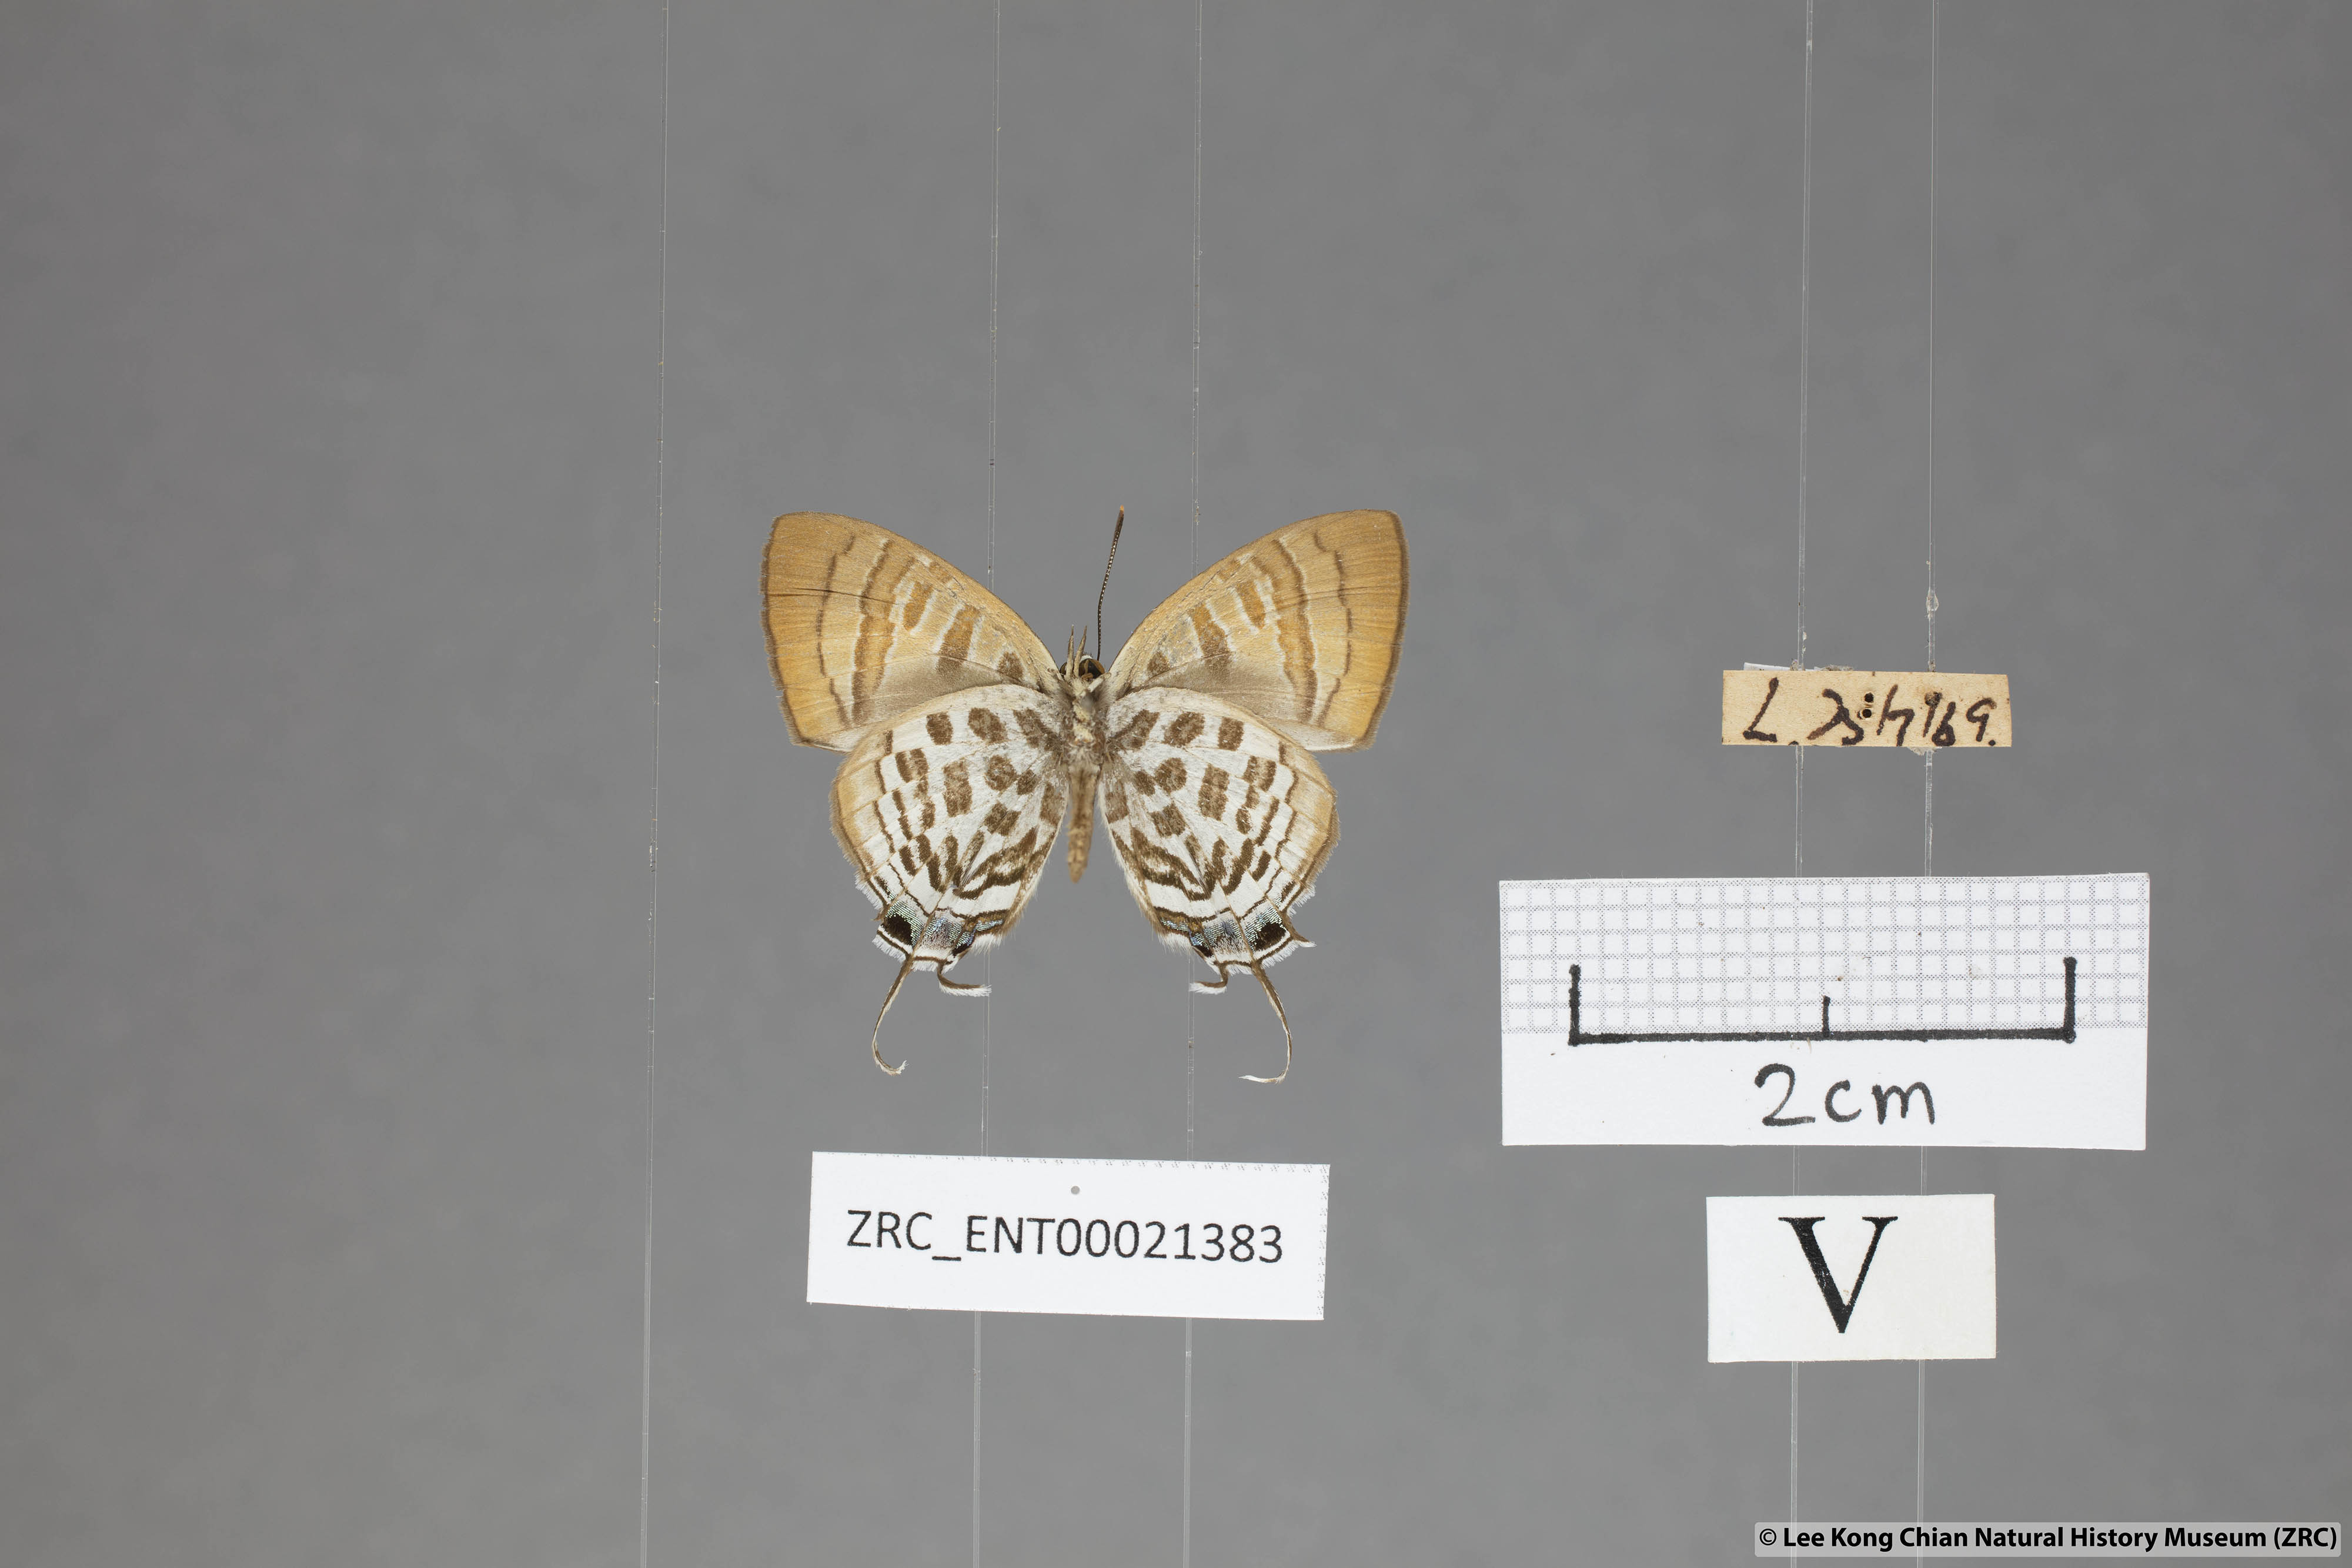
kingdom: Animalia
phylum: Arthropoda
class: Insecta
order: Lepidoptera
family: Lycaenidae
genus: Drupadia
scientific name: Drupadia niasica
